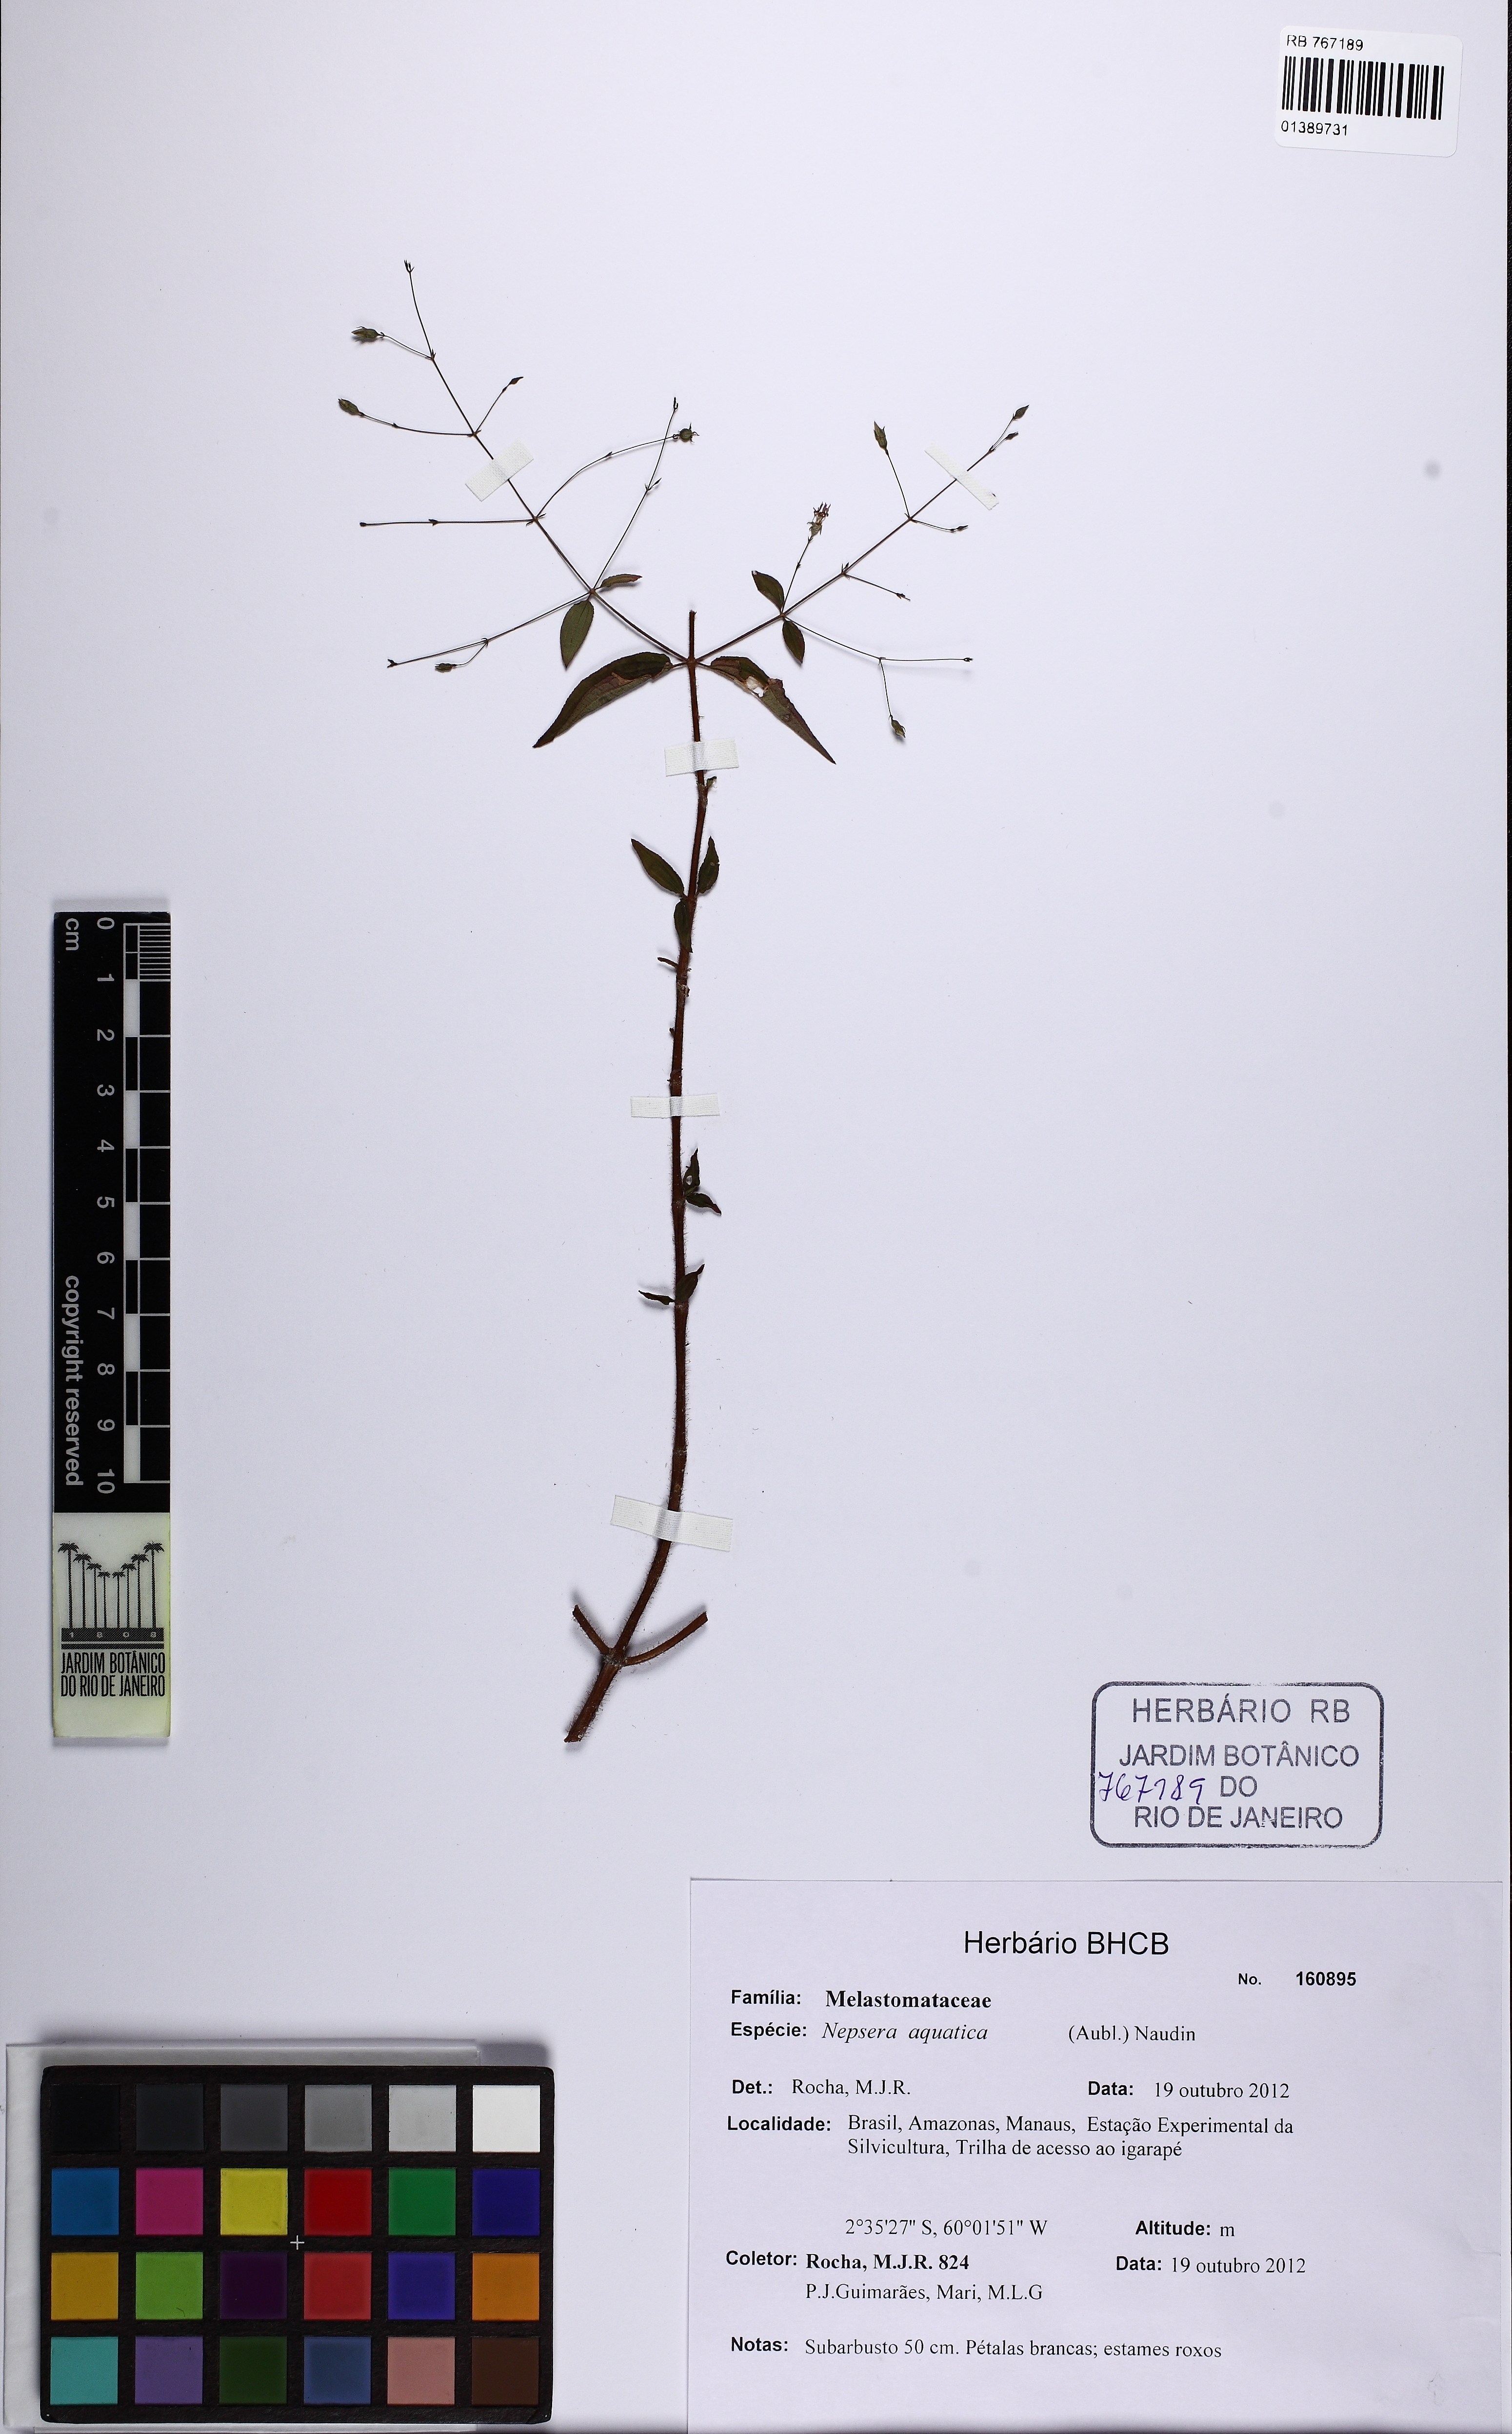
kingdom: Plantae
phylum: Tracheophyta
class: Magnoliopsida
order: Myrtales
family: Melastomataceae
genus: Nepsera
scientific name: Nepsera aquatica
